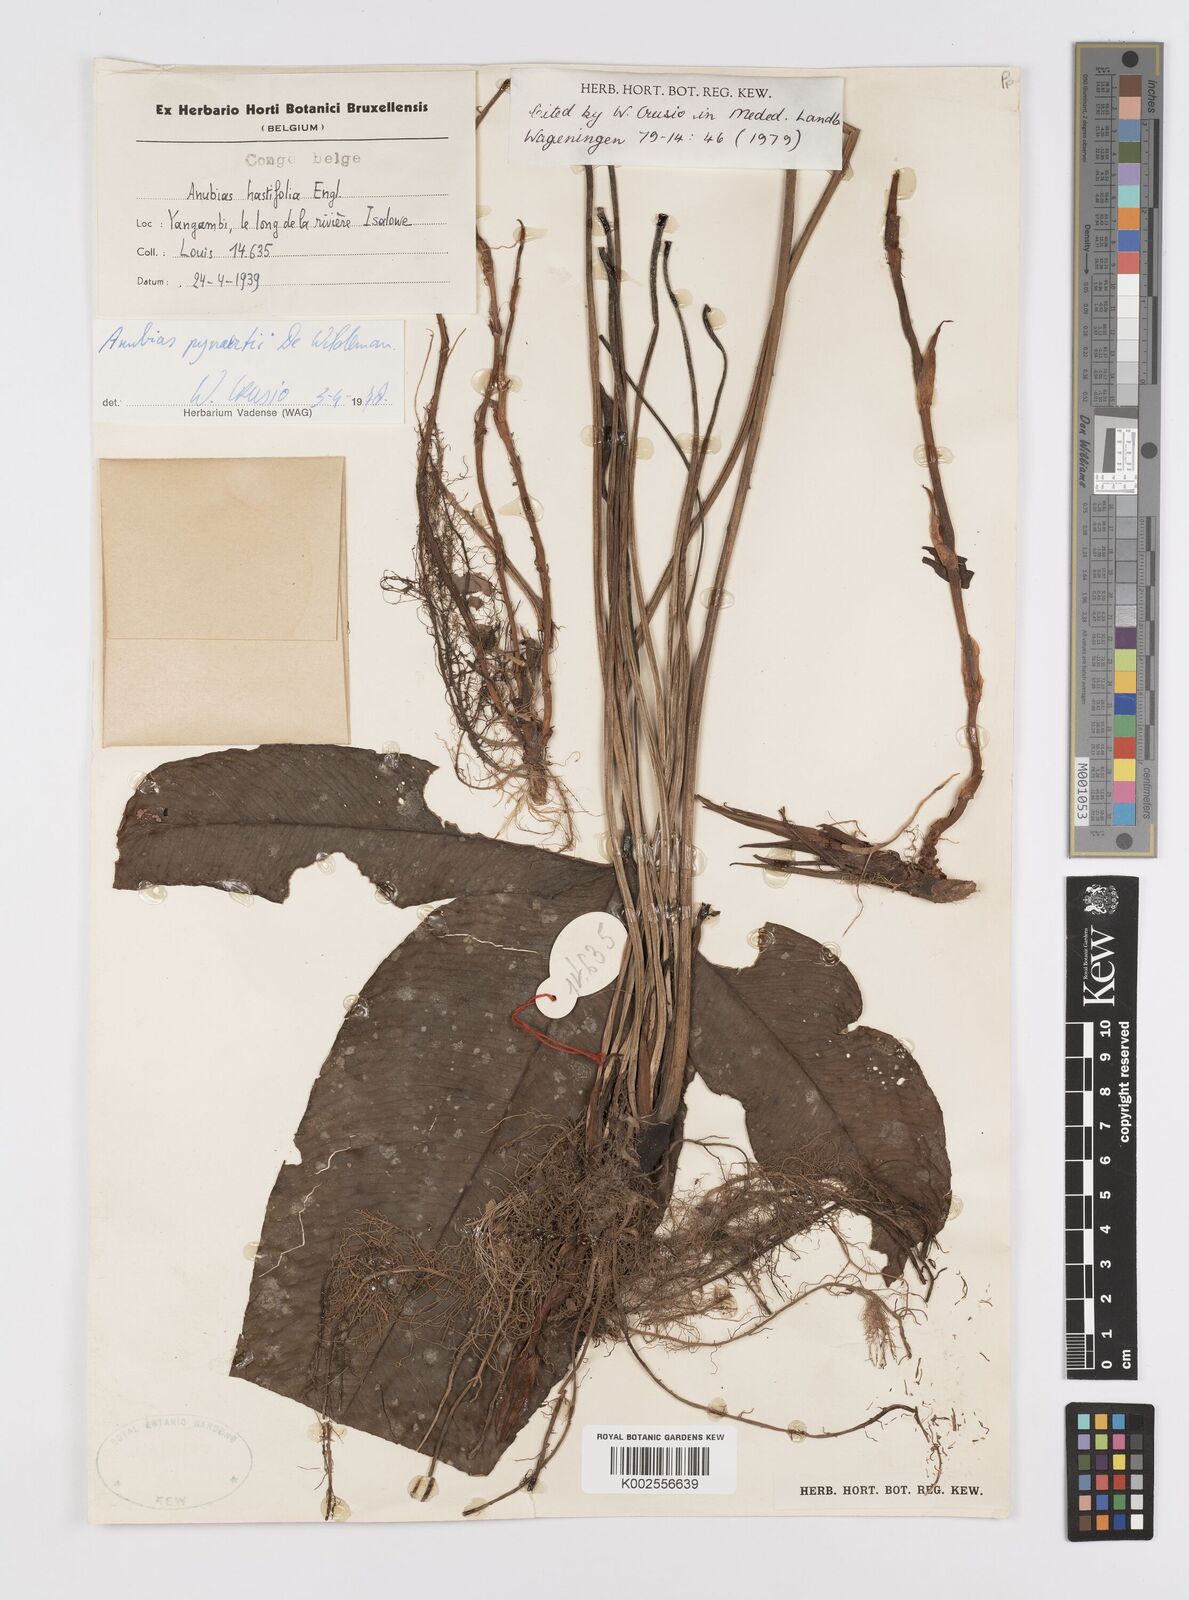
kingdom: Plantae
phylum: Tracheophyta
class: Liliopsida
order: Alismatales
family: Araceae
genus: Anubias
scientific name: Anubias pynaertii
